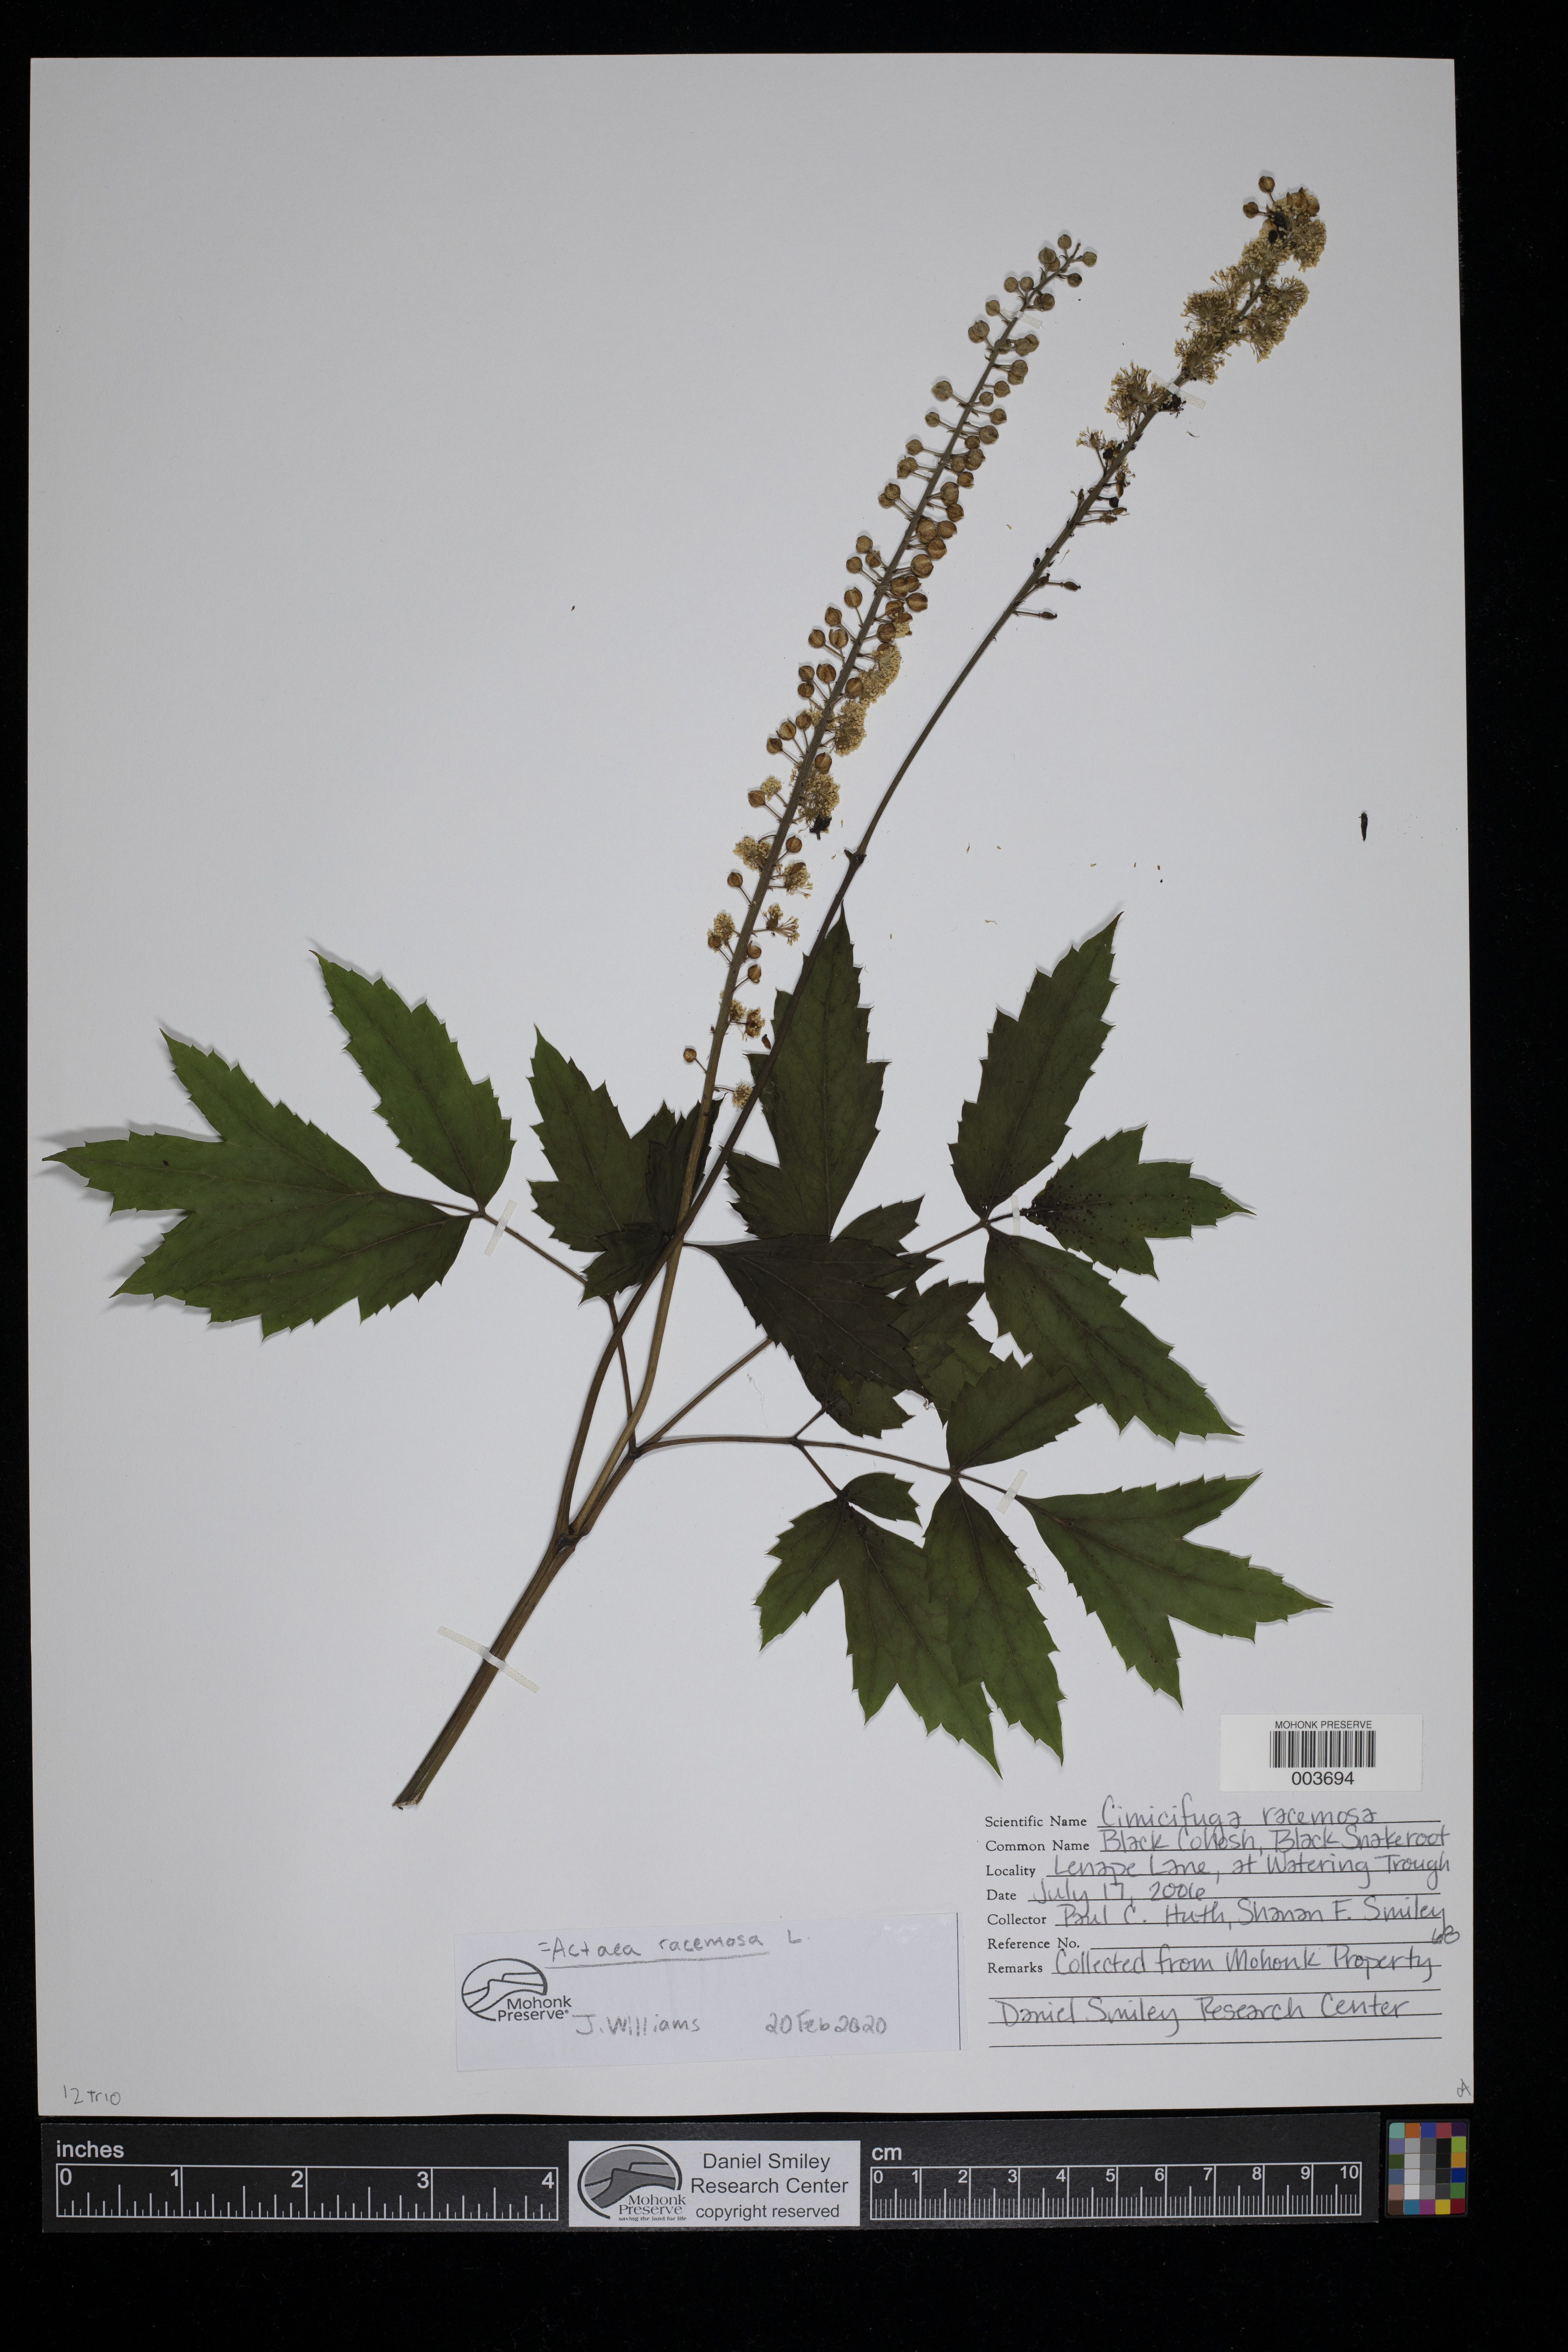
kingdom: Plantae
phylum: Tracheophyta
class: Magnoliopsida
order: Ranunculales
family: Ranunculaceae
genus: Actaea
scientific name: Actaea racemosa
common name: Black cohosh
